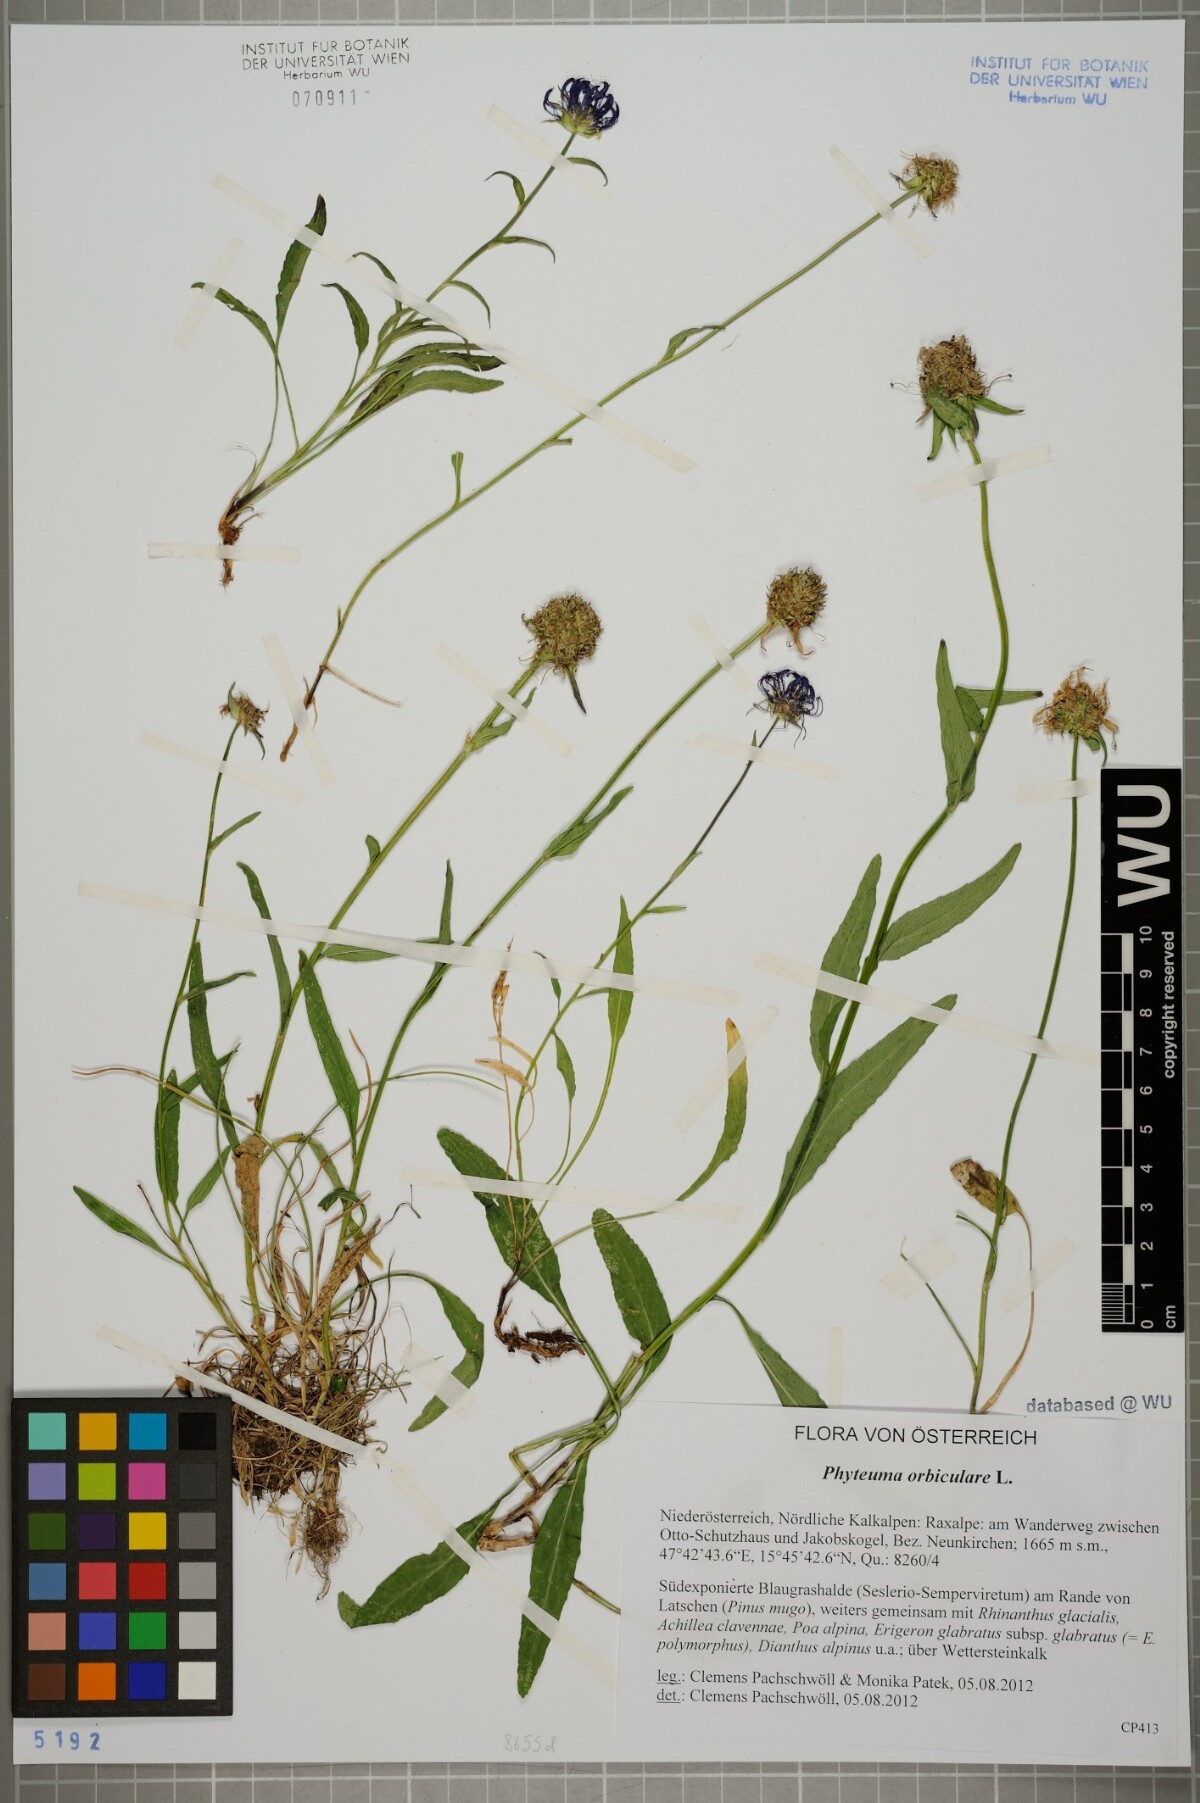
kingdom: Plantae
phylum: Tracheophyta
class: Magnoliopsida
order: Asterales
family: Campanulaceae
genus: Phyteuma
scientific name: Phyteuma orbiculare
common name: Round-headed rampion
